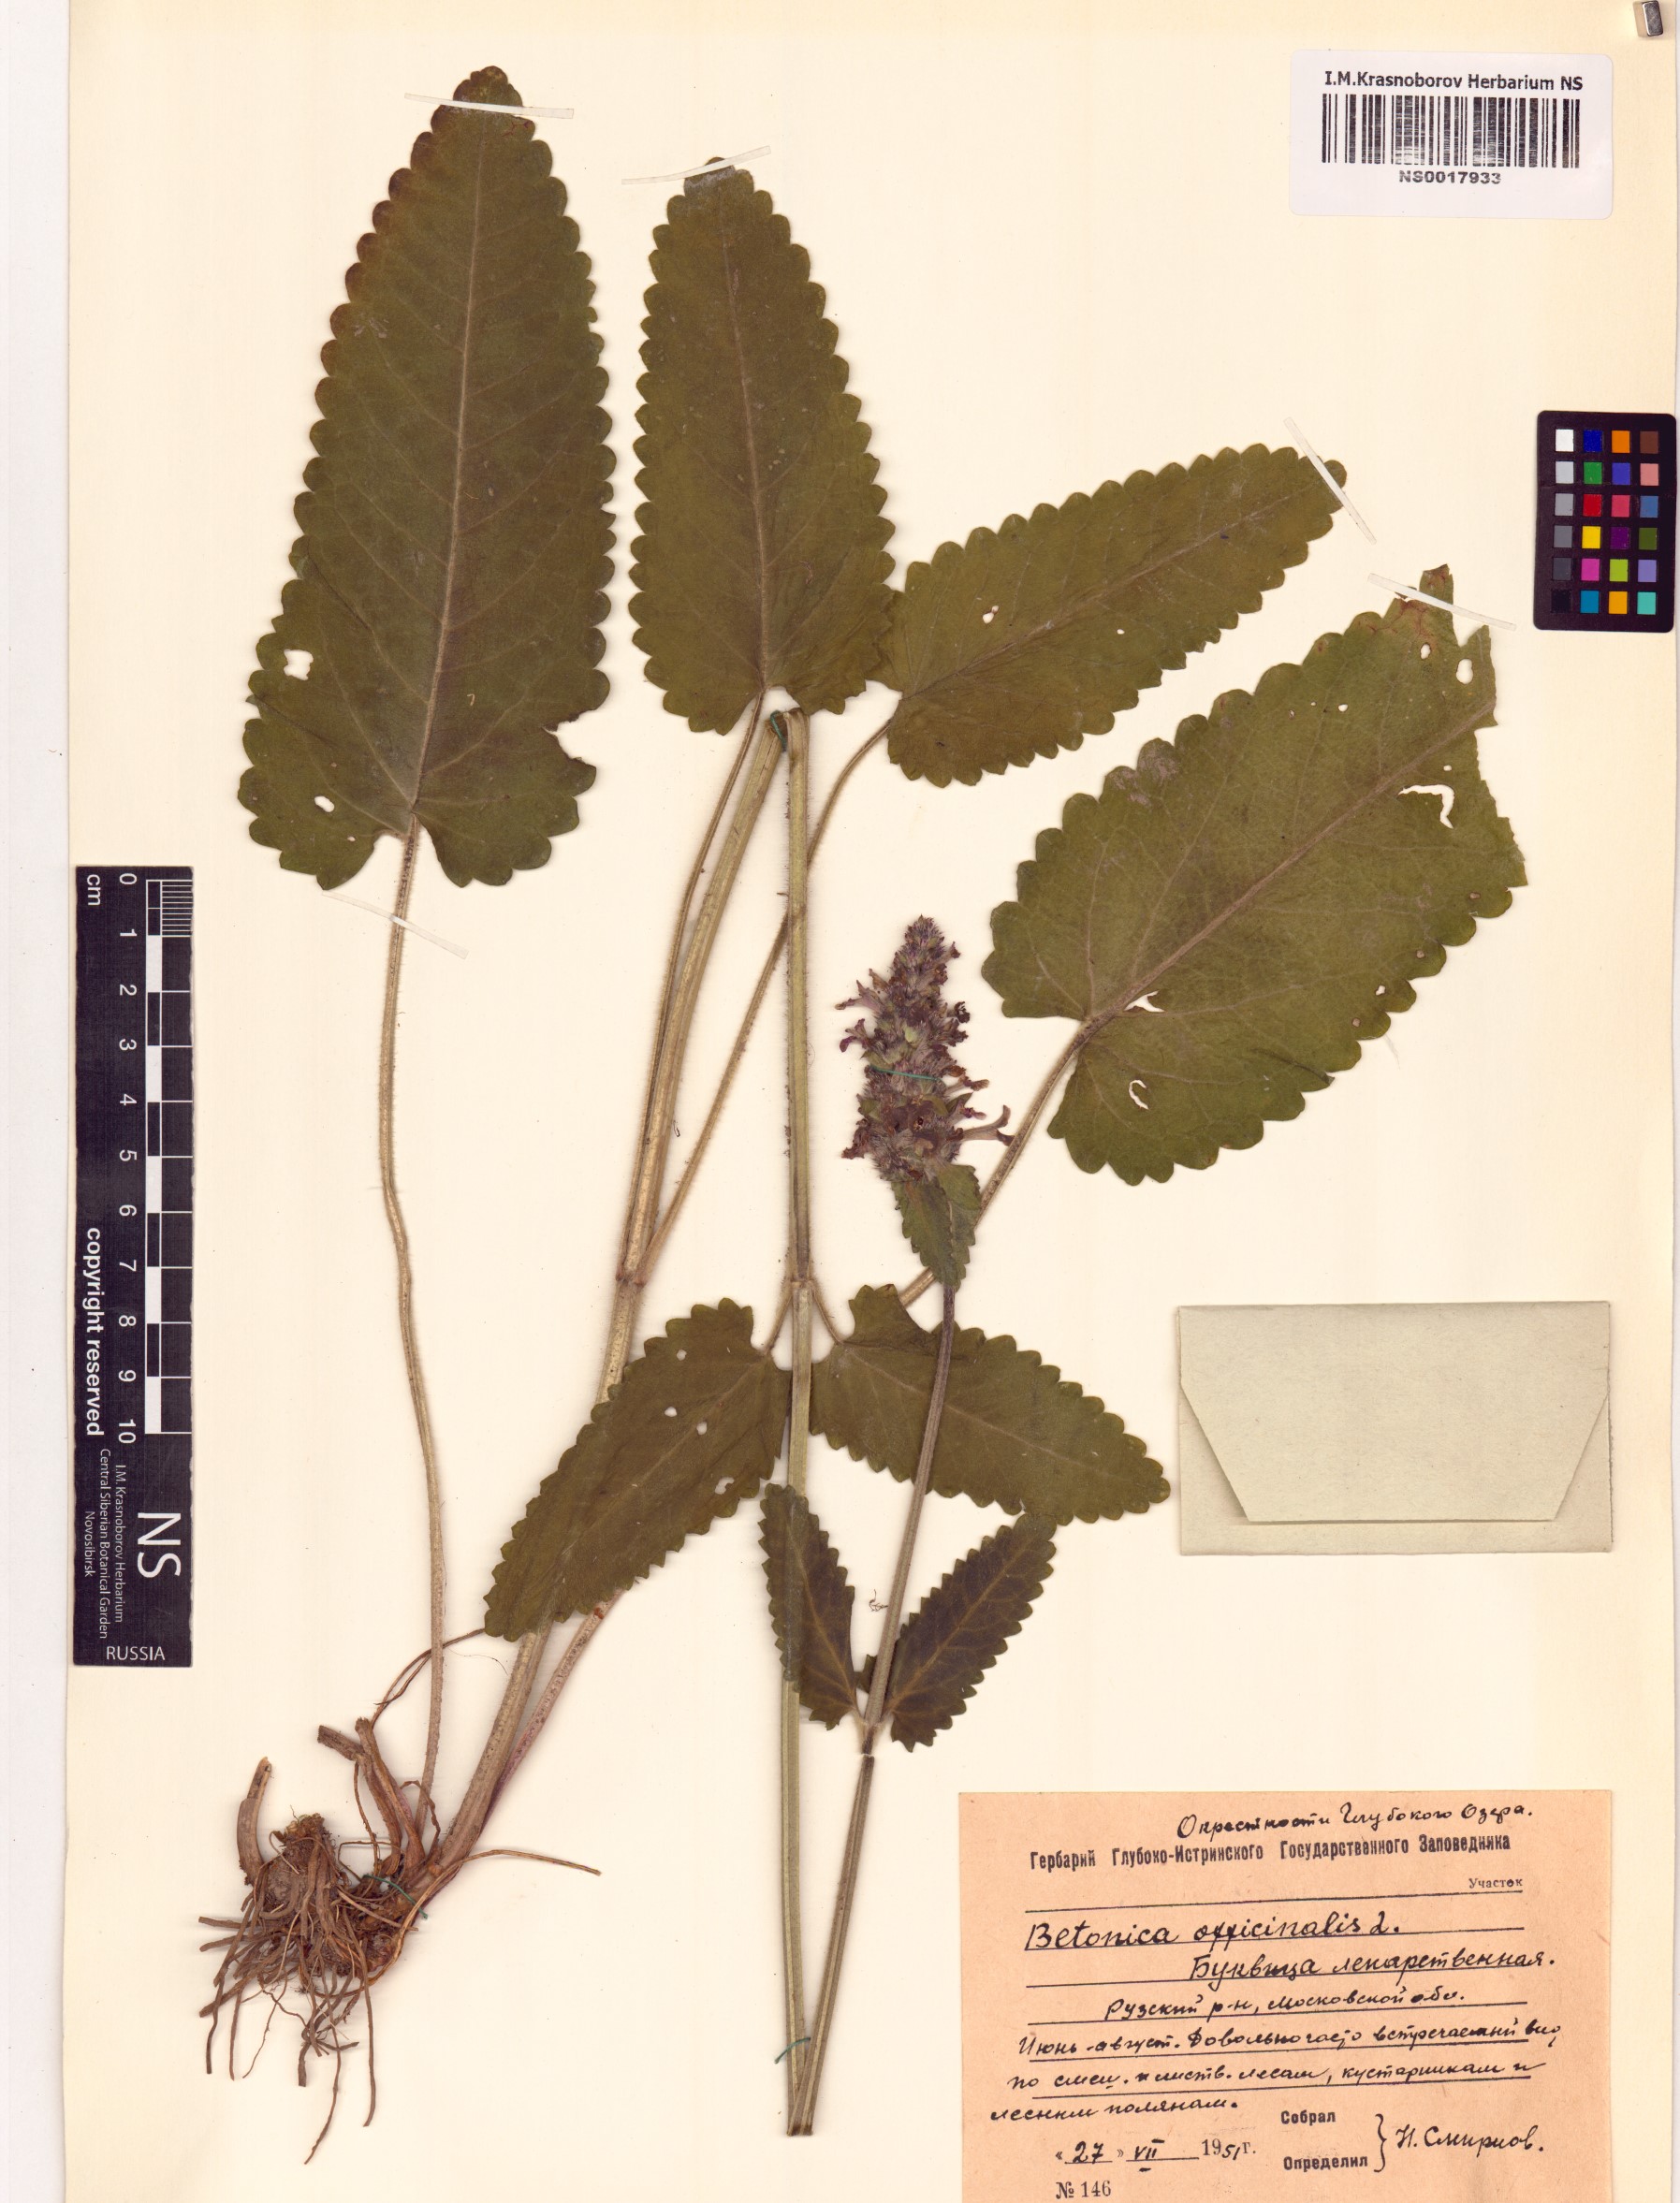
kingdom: Plantae
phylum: Tracheophyta
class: Magnoliopsida
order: Lamiales
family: Lamiaceae
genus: Betonica
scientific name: Betonica officinalis
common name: Bishop's-wort
